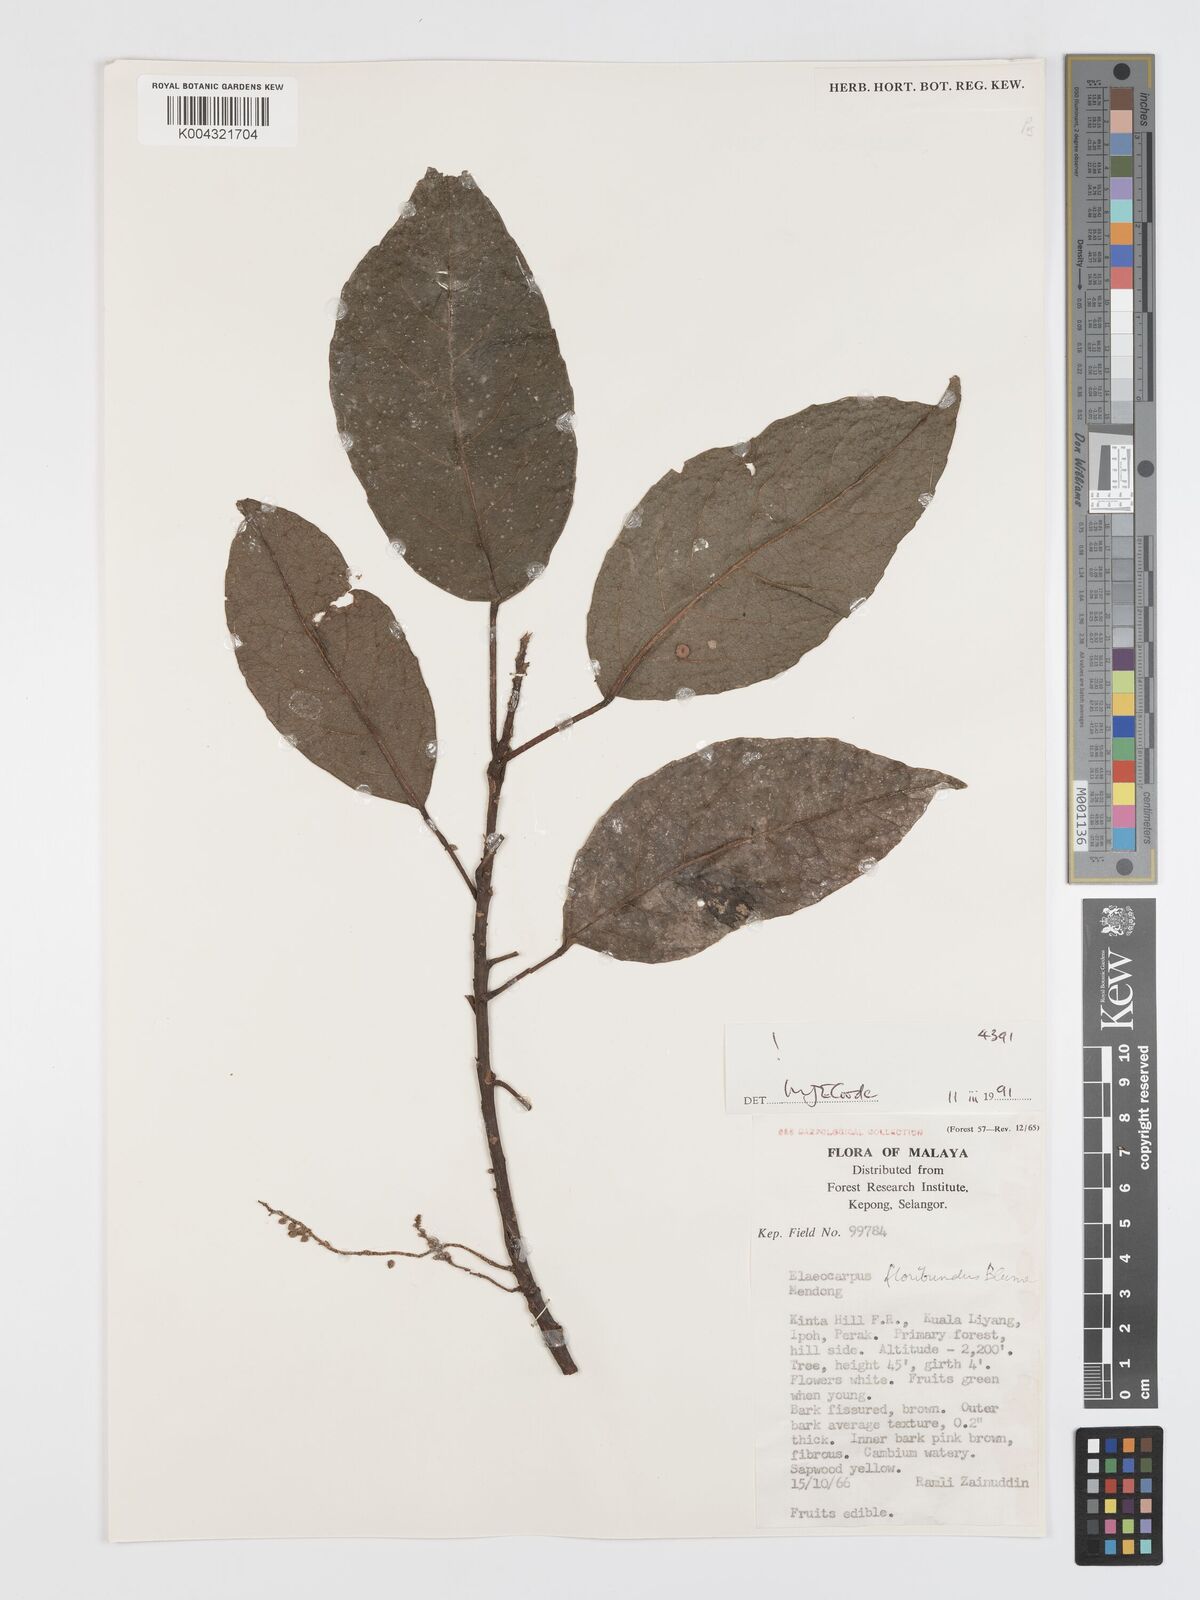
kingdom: Plantae
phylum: Tracheophyta
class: Magnoliopsida
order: Oxalidales
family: Elaeocarpaceae
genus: Elaeocarpus
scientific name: Elaeocarpus floribundus
